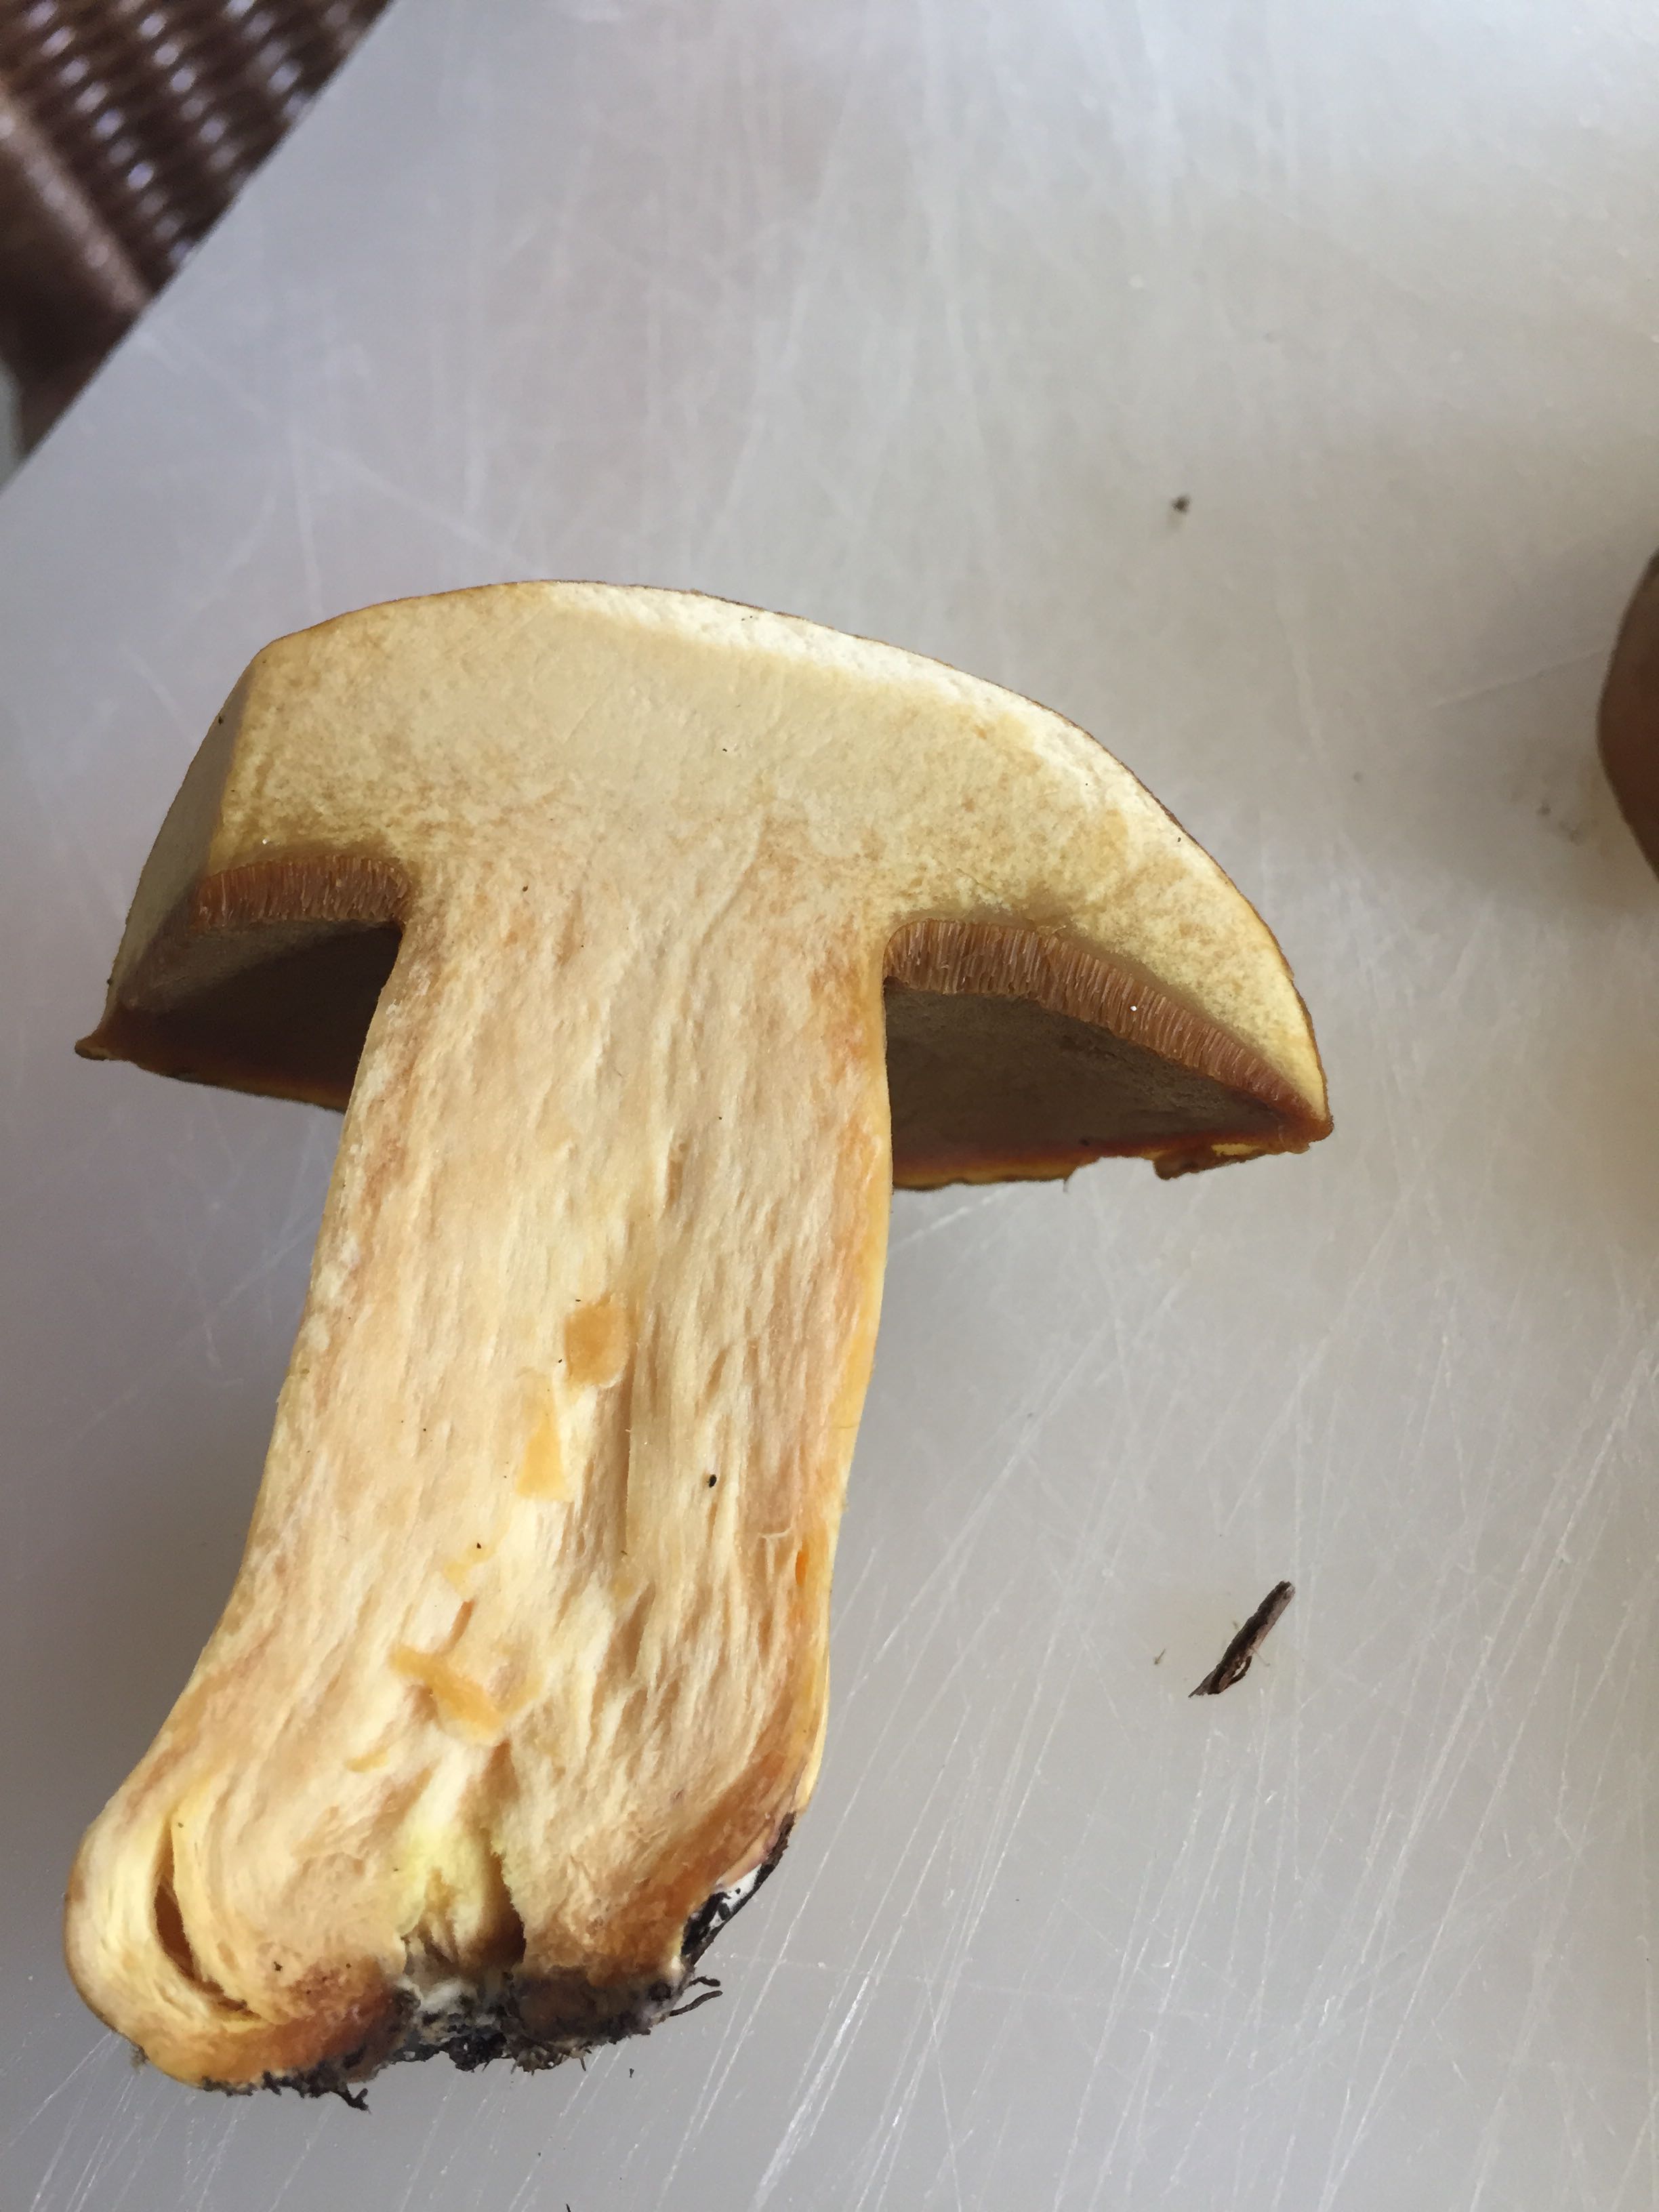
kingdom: Fungi
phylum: Basidiomycota
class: Agaricomycetes
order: Boletales
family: Suillaceae
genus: Suillus
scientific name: Suillus variegatus
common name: broget slimrørhat
